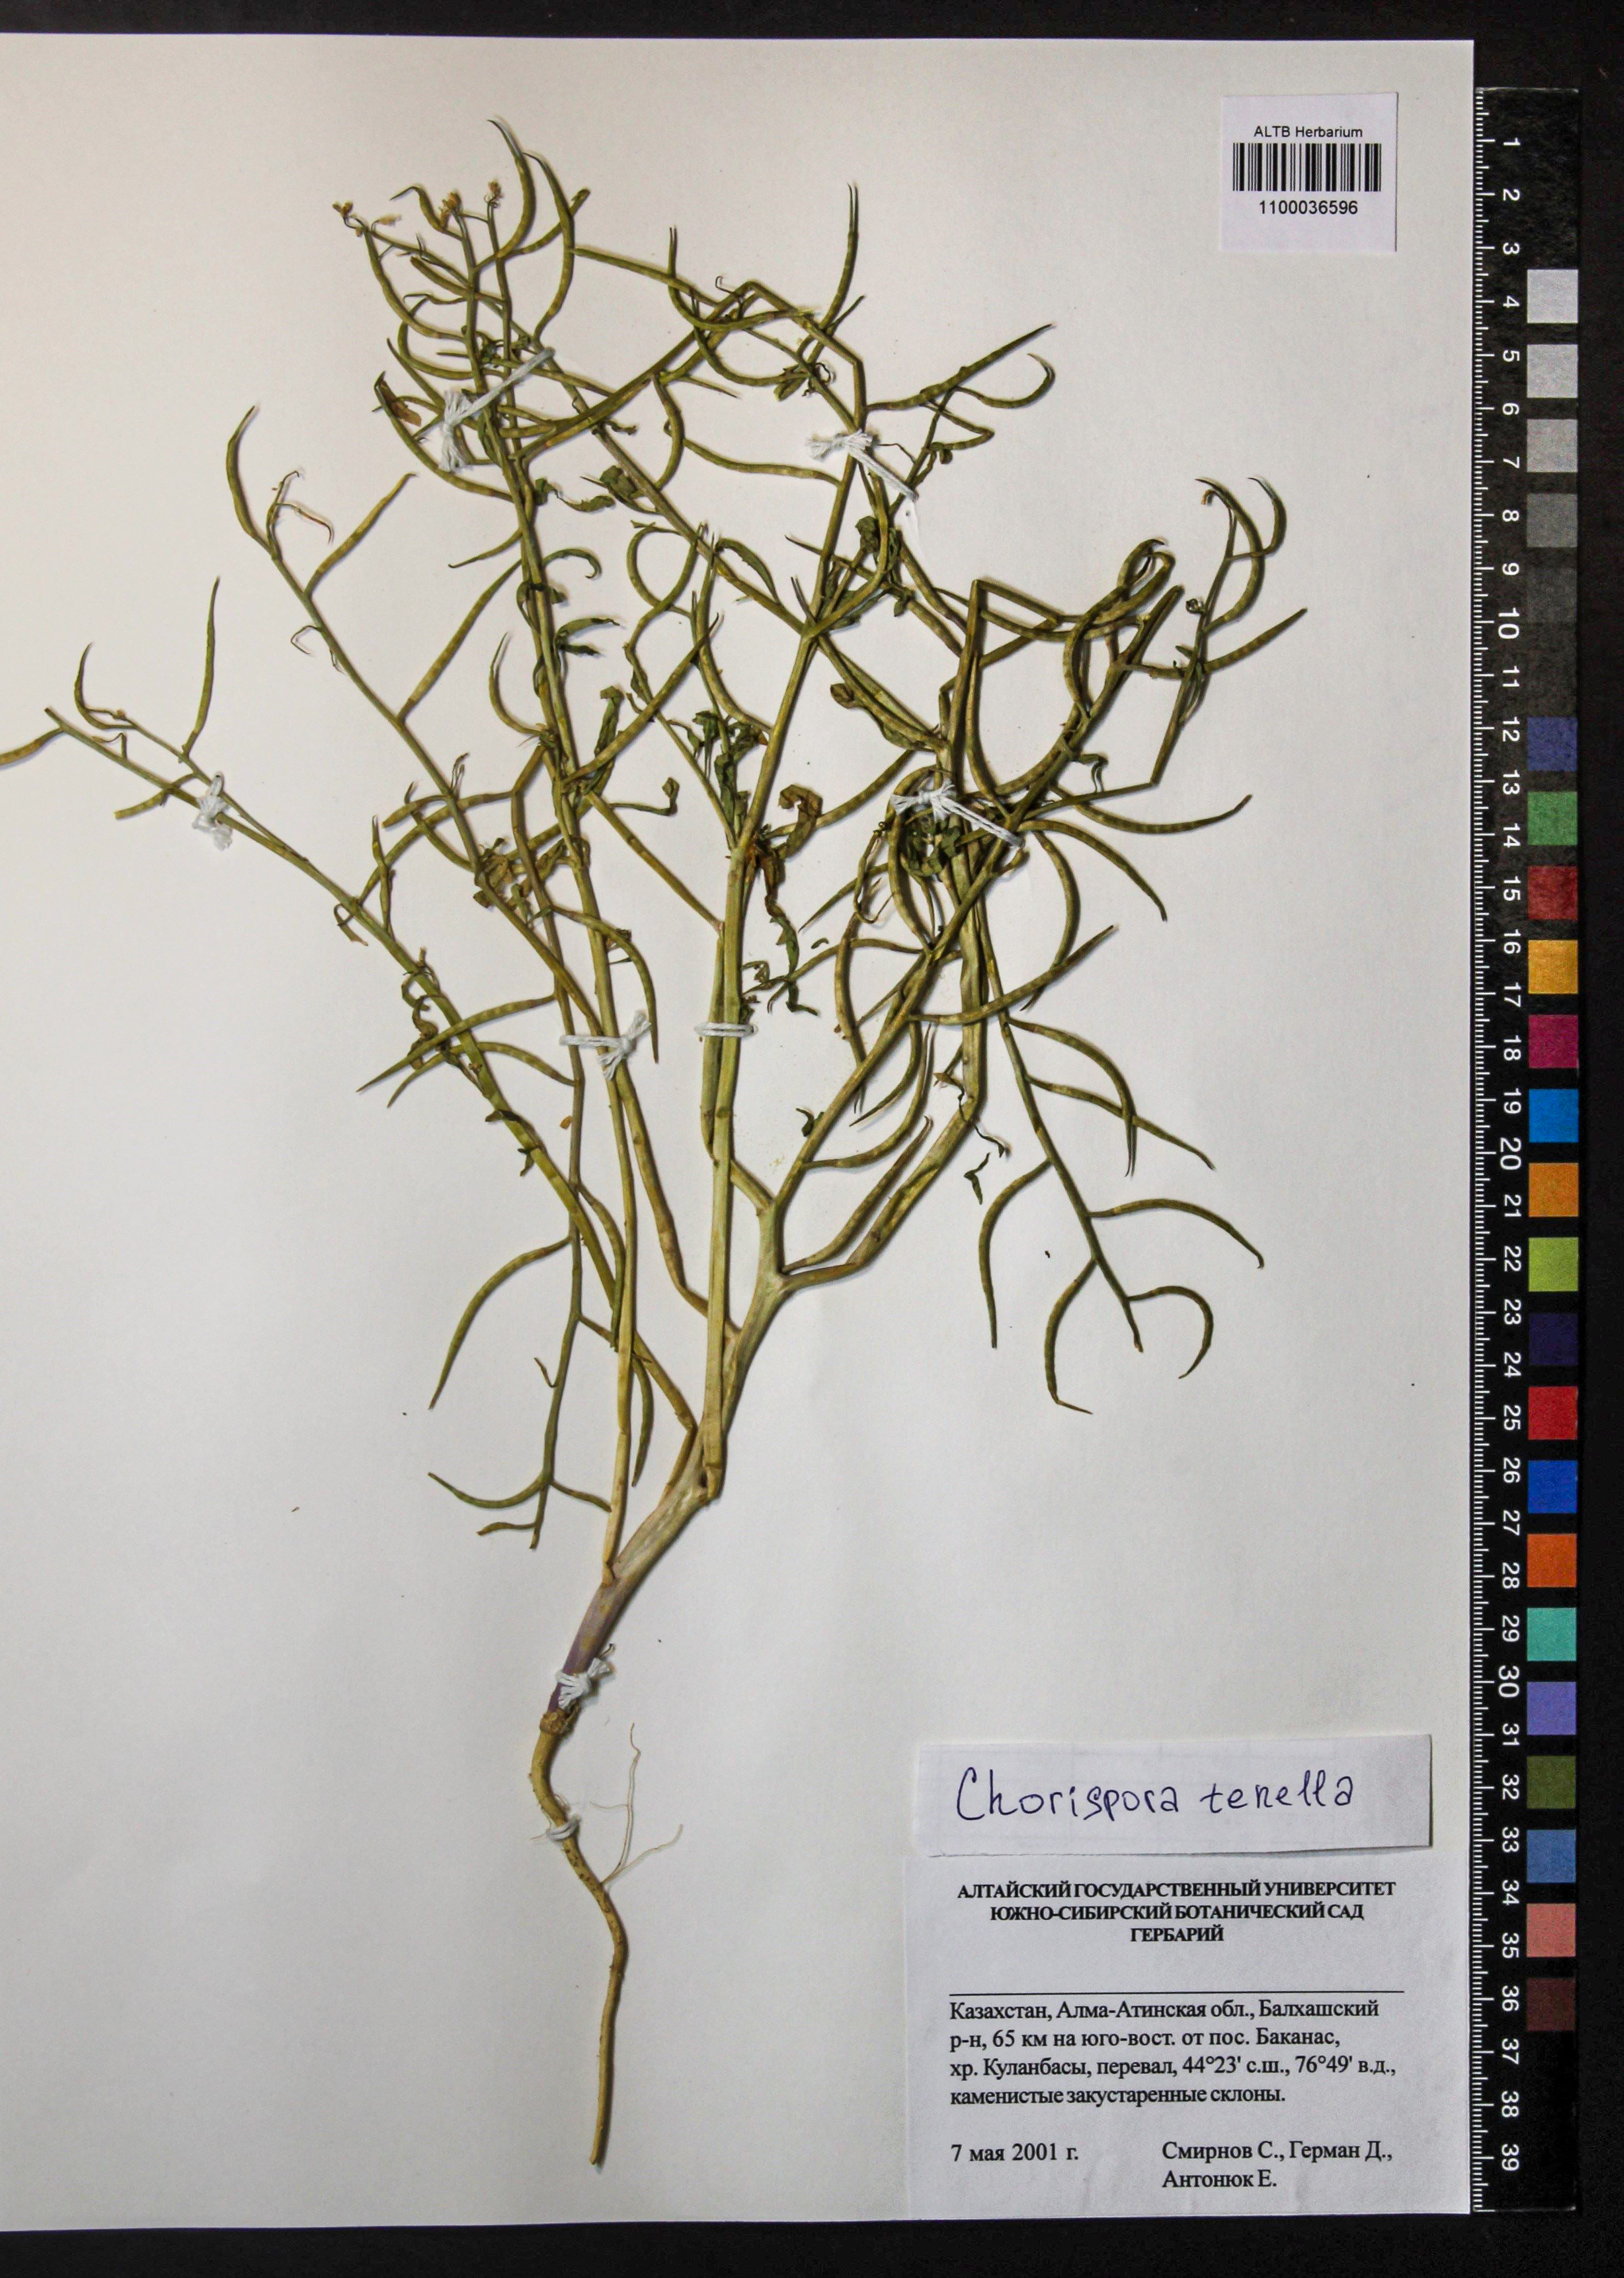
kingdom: Plantae
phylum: Tracheophyta
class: Magnoliopsida
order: Brassicales
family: Brassicaceae
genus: Chorispora
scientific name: Chorispora tenella
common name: Crossflower
